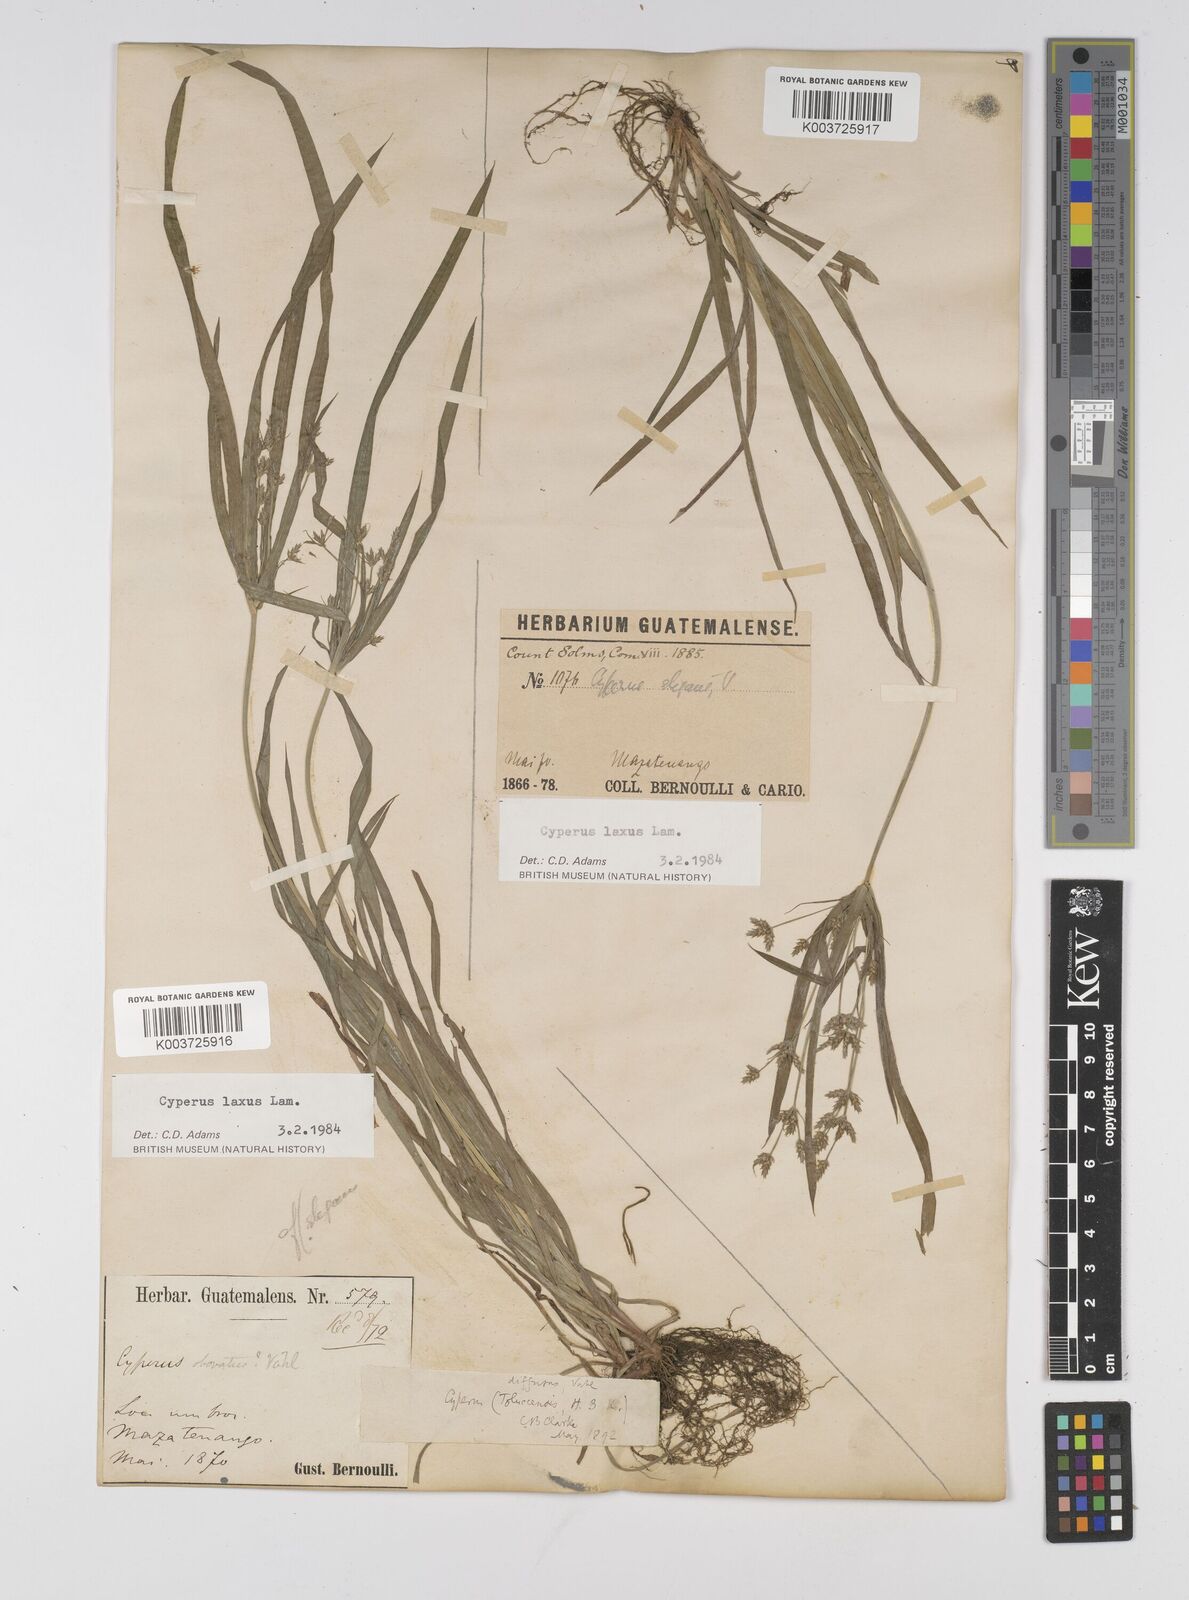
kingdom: Plantae
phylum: Tracheophyta
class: Liliopsida
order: Poales
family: Cyperaceae
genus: Cyperus
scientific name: Cyperus chalaranthus
